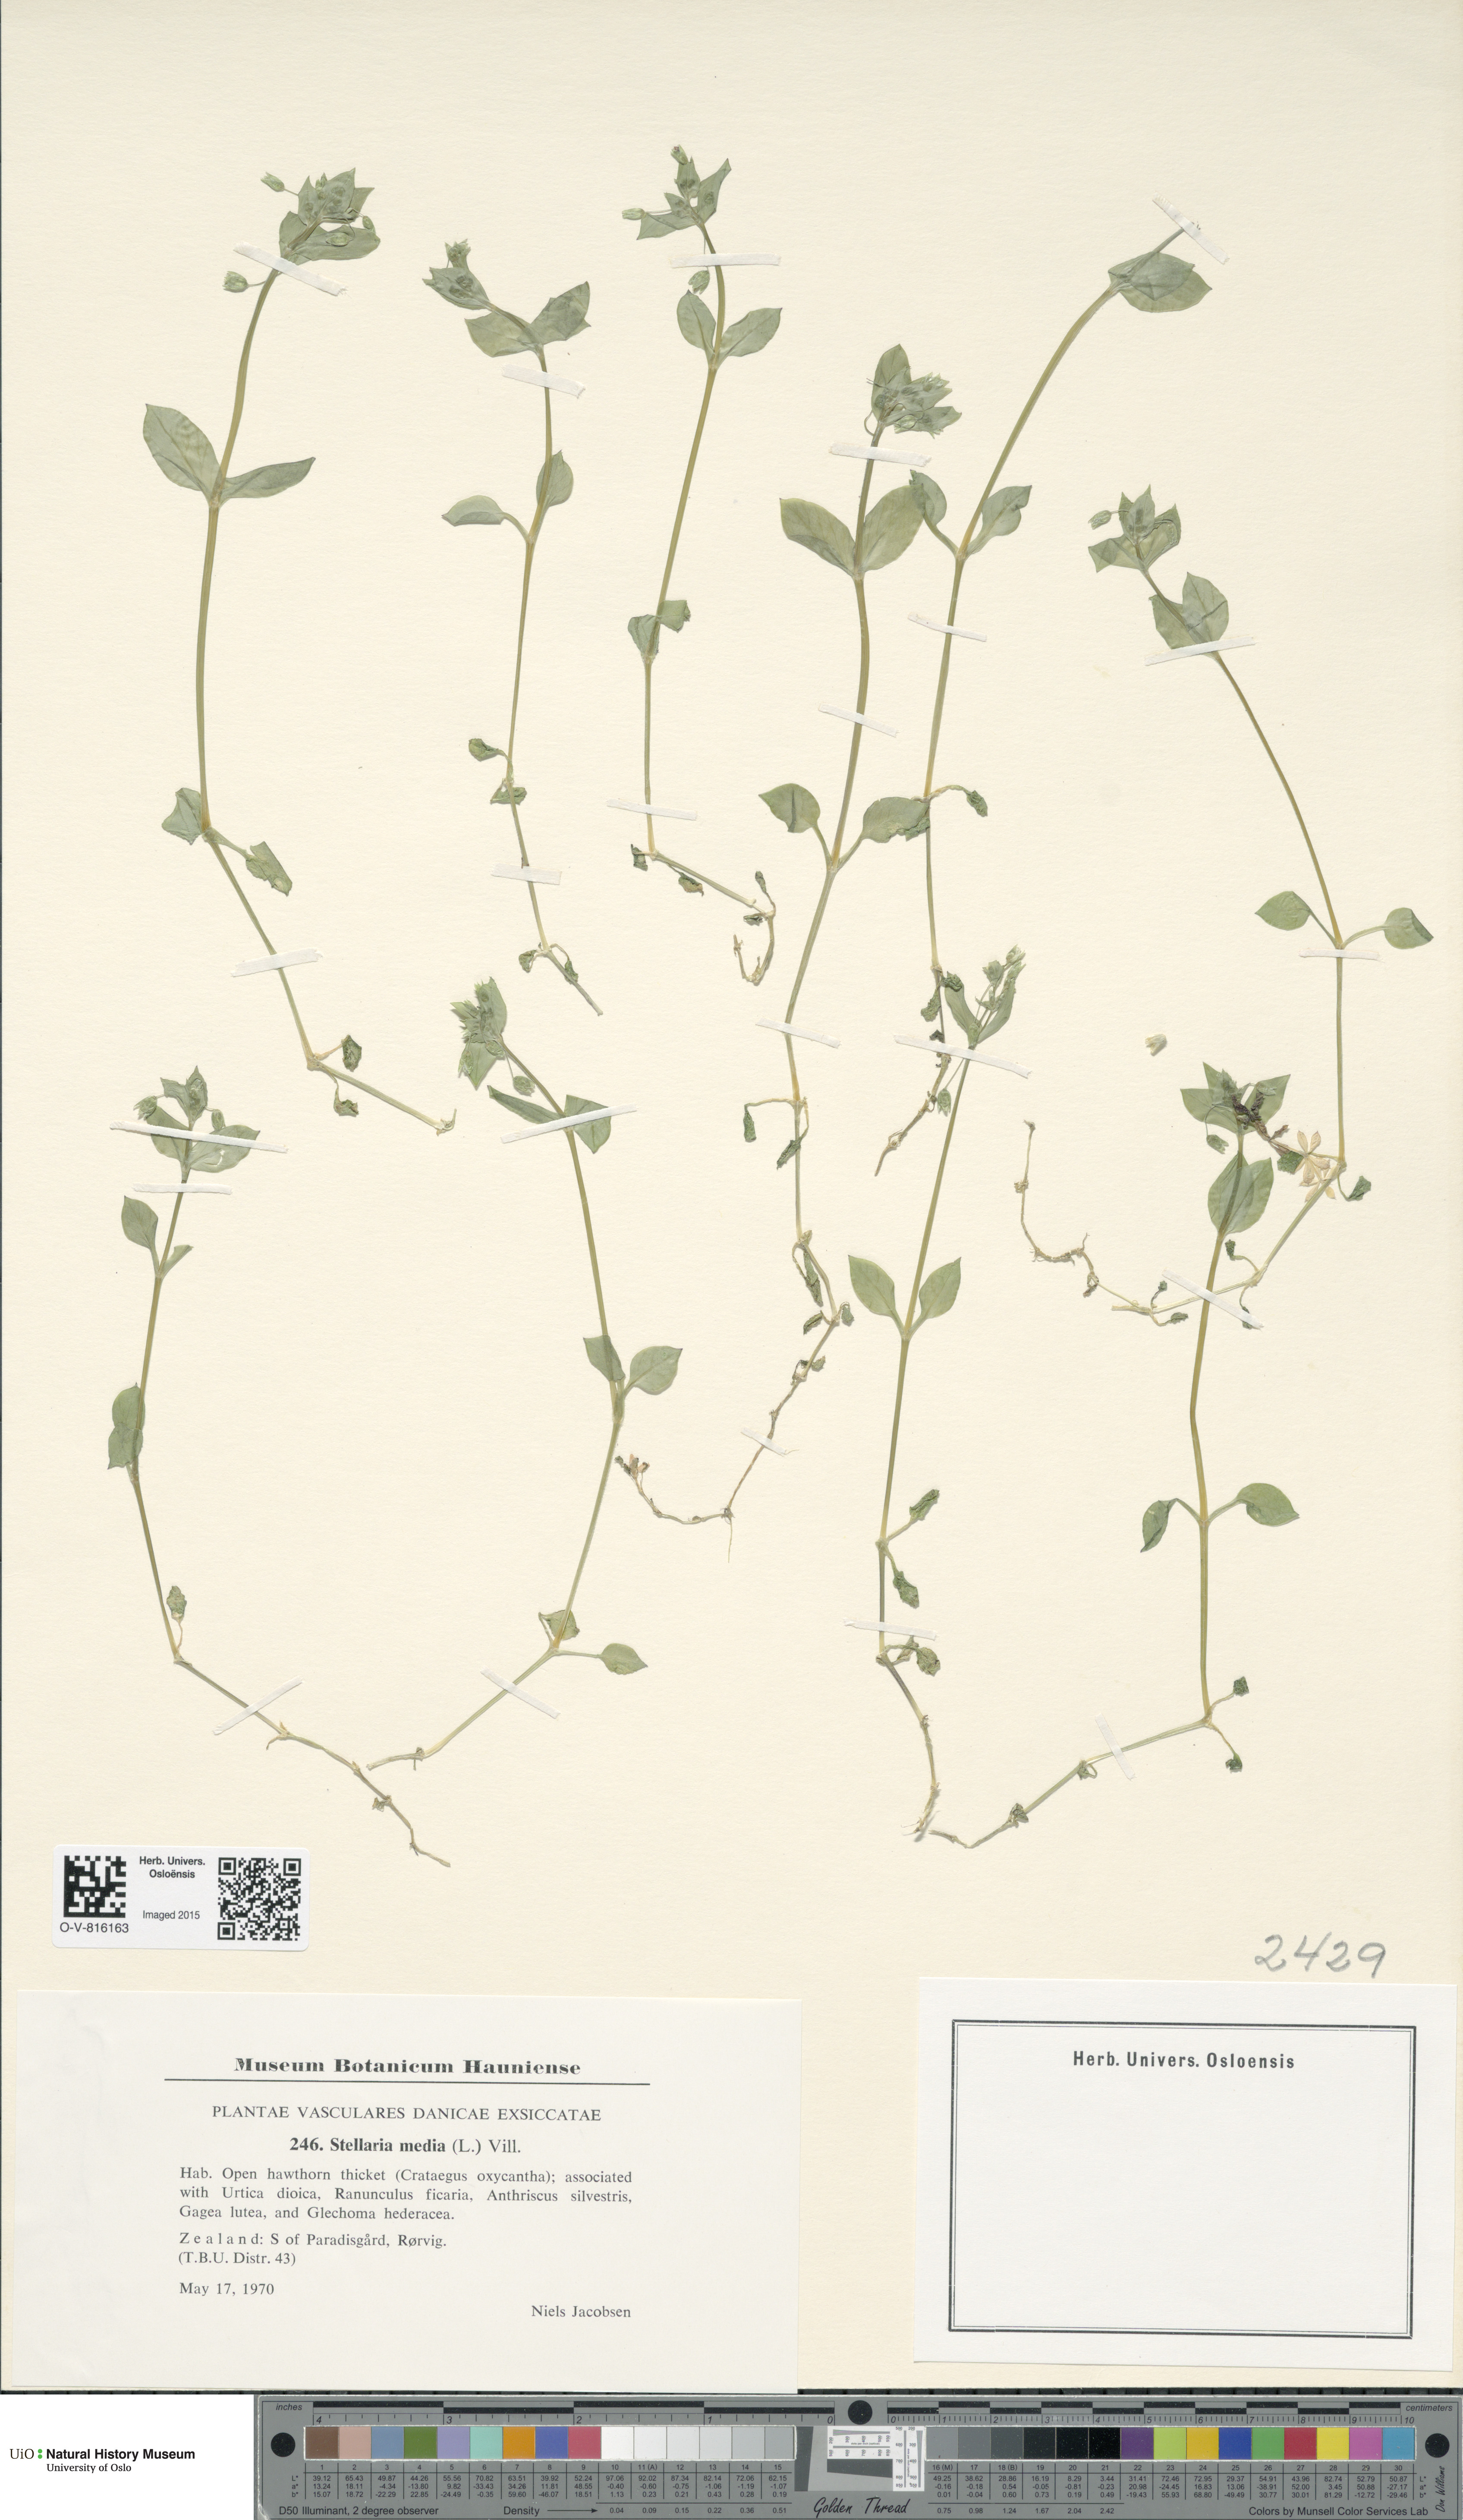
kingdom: Plantae
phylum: Tracheophyta
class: Magnoliopsida
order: Caryophyllales
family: Caryophyllaceae
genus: Stellaria
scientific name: Stellaria media
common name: Common chickweed
